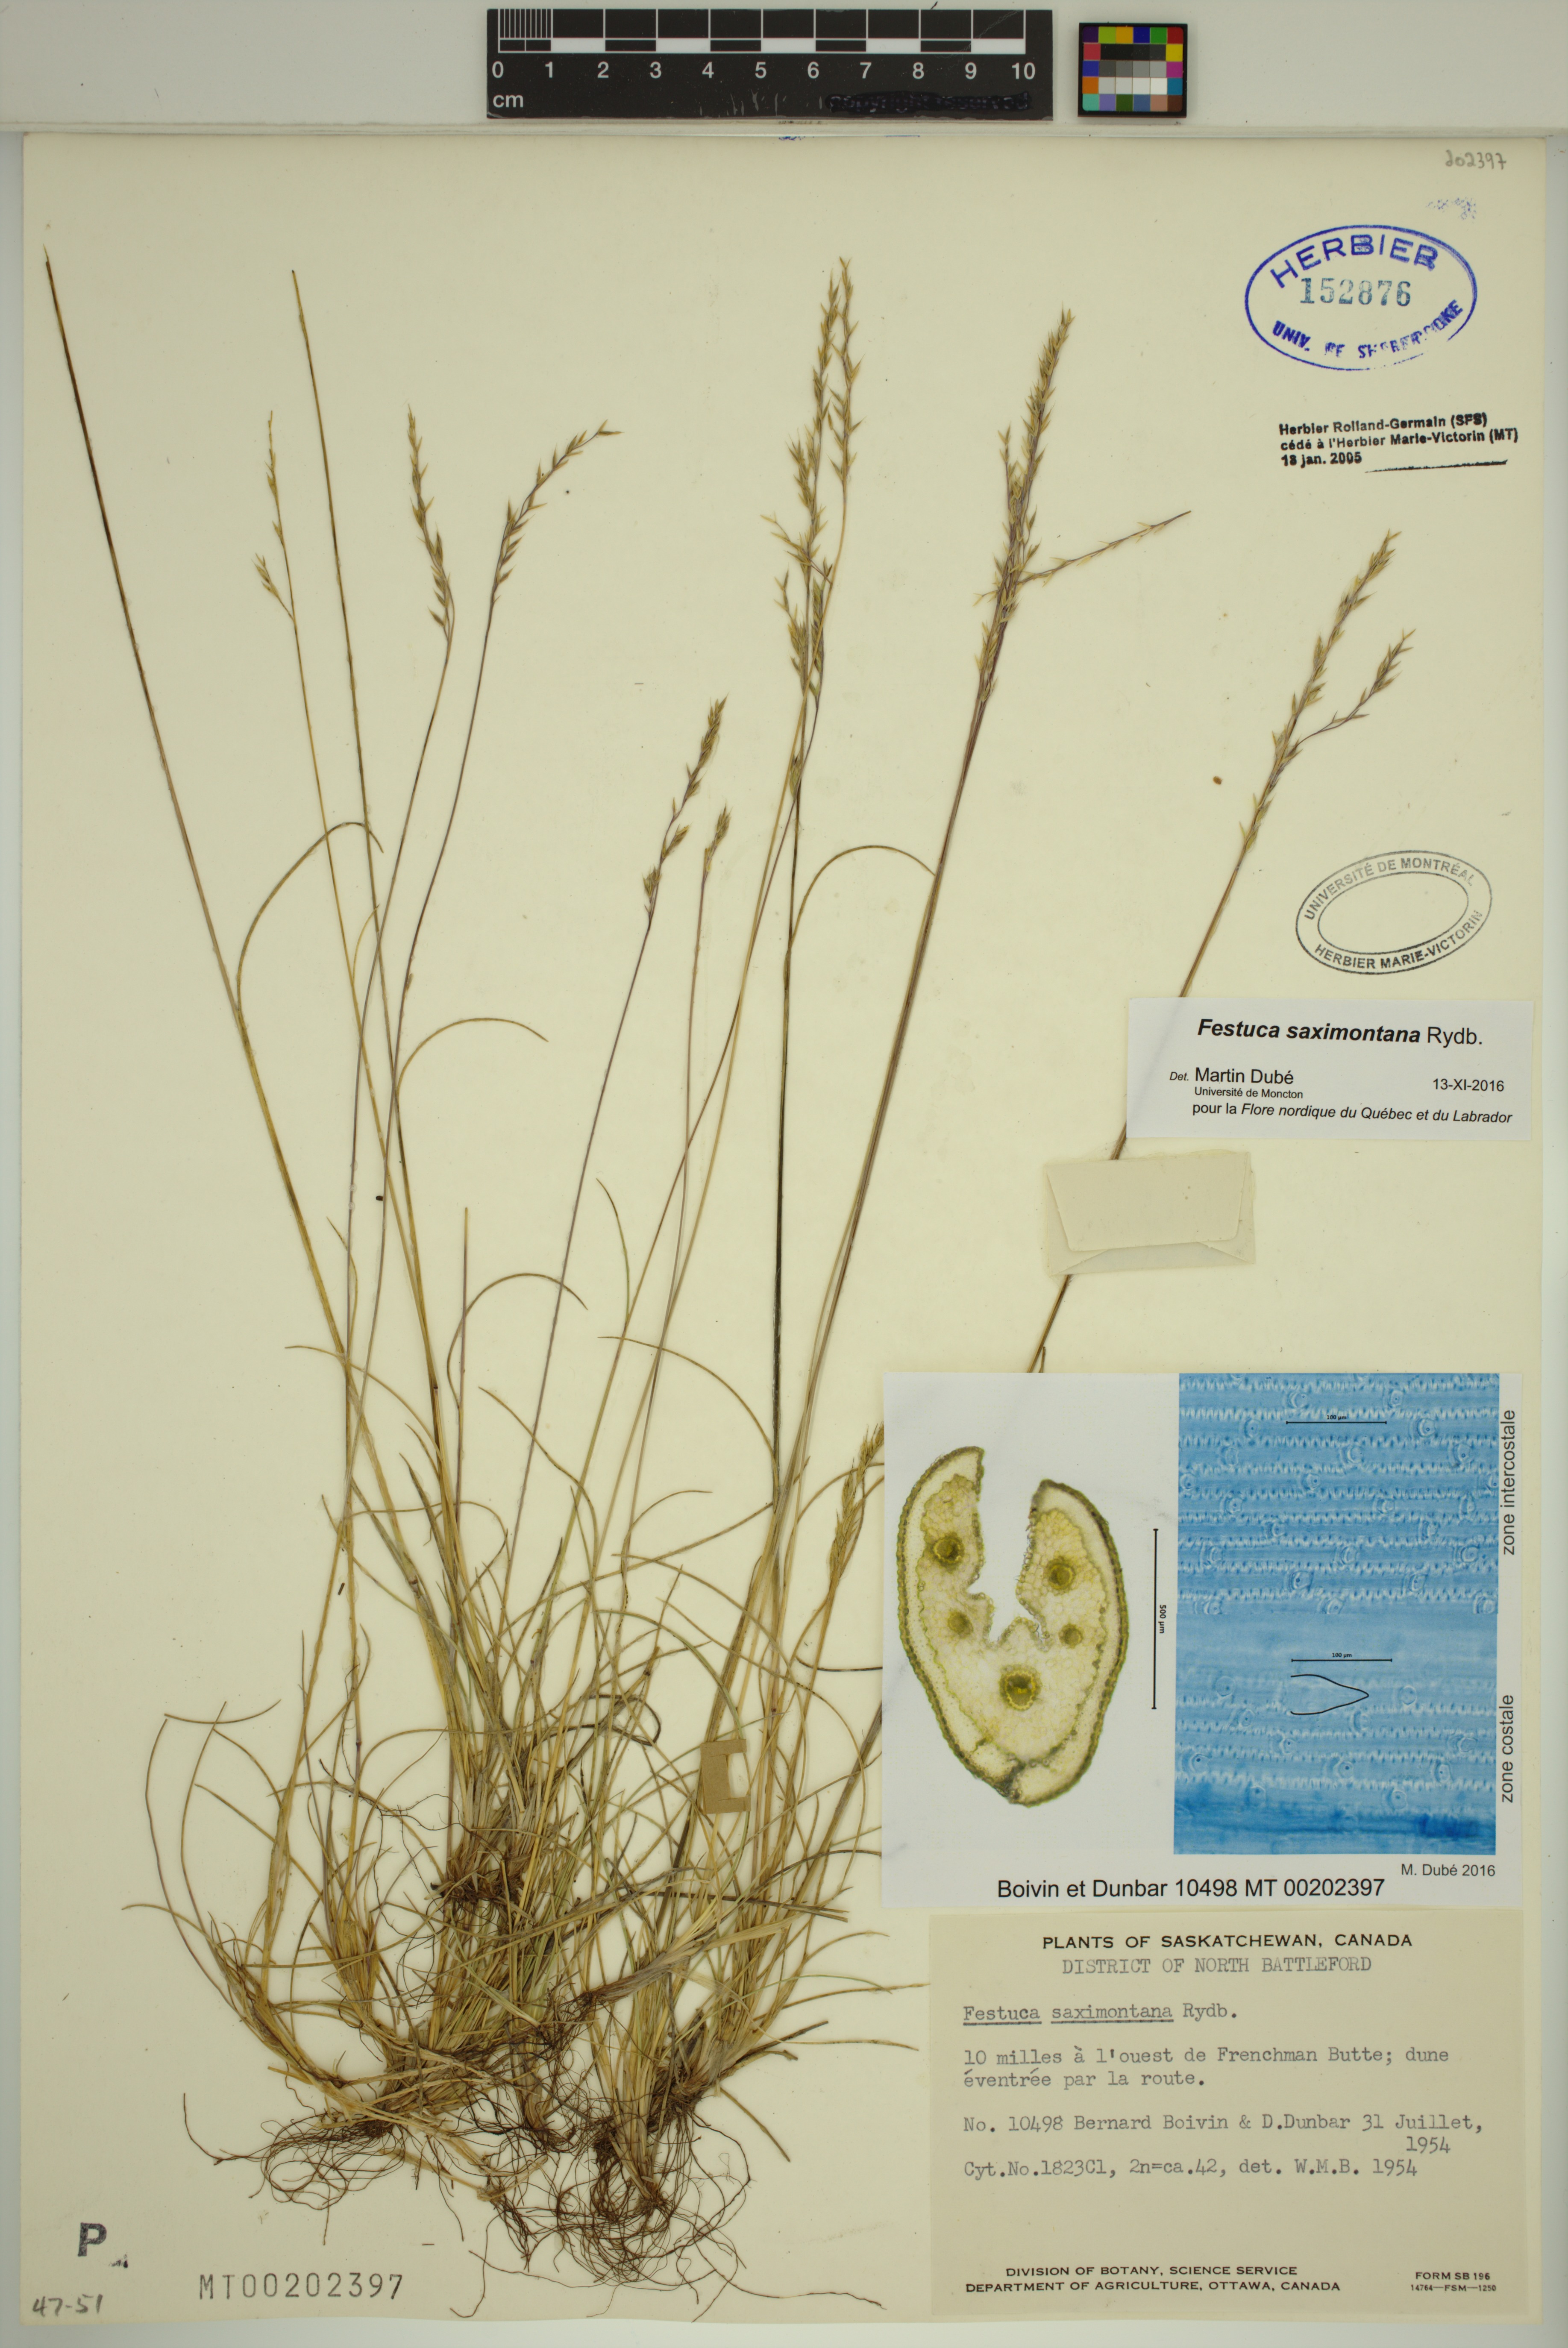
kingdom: Plantae
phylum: Tracheophyta
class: Liliopsida
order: Poales
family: Poaceae
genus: Festuca
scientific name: Festuca saximontana
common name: Mountain fescue
